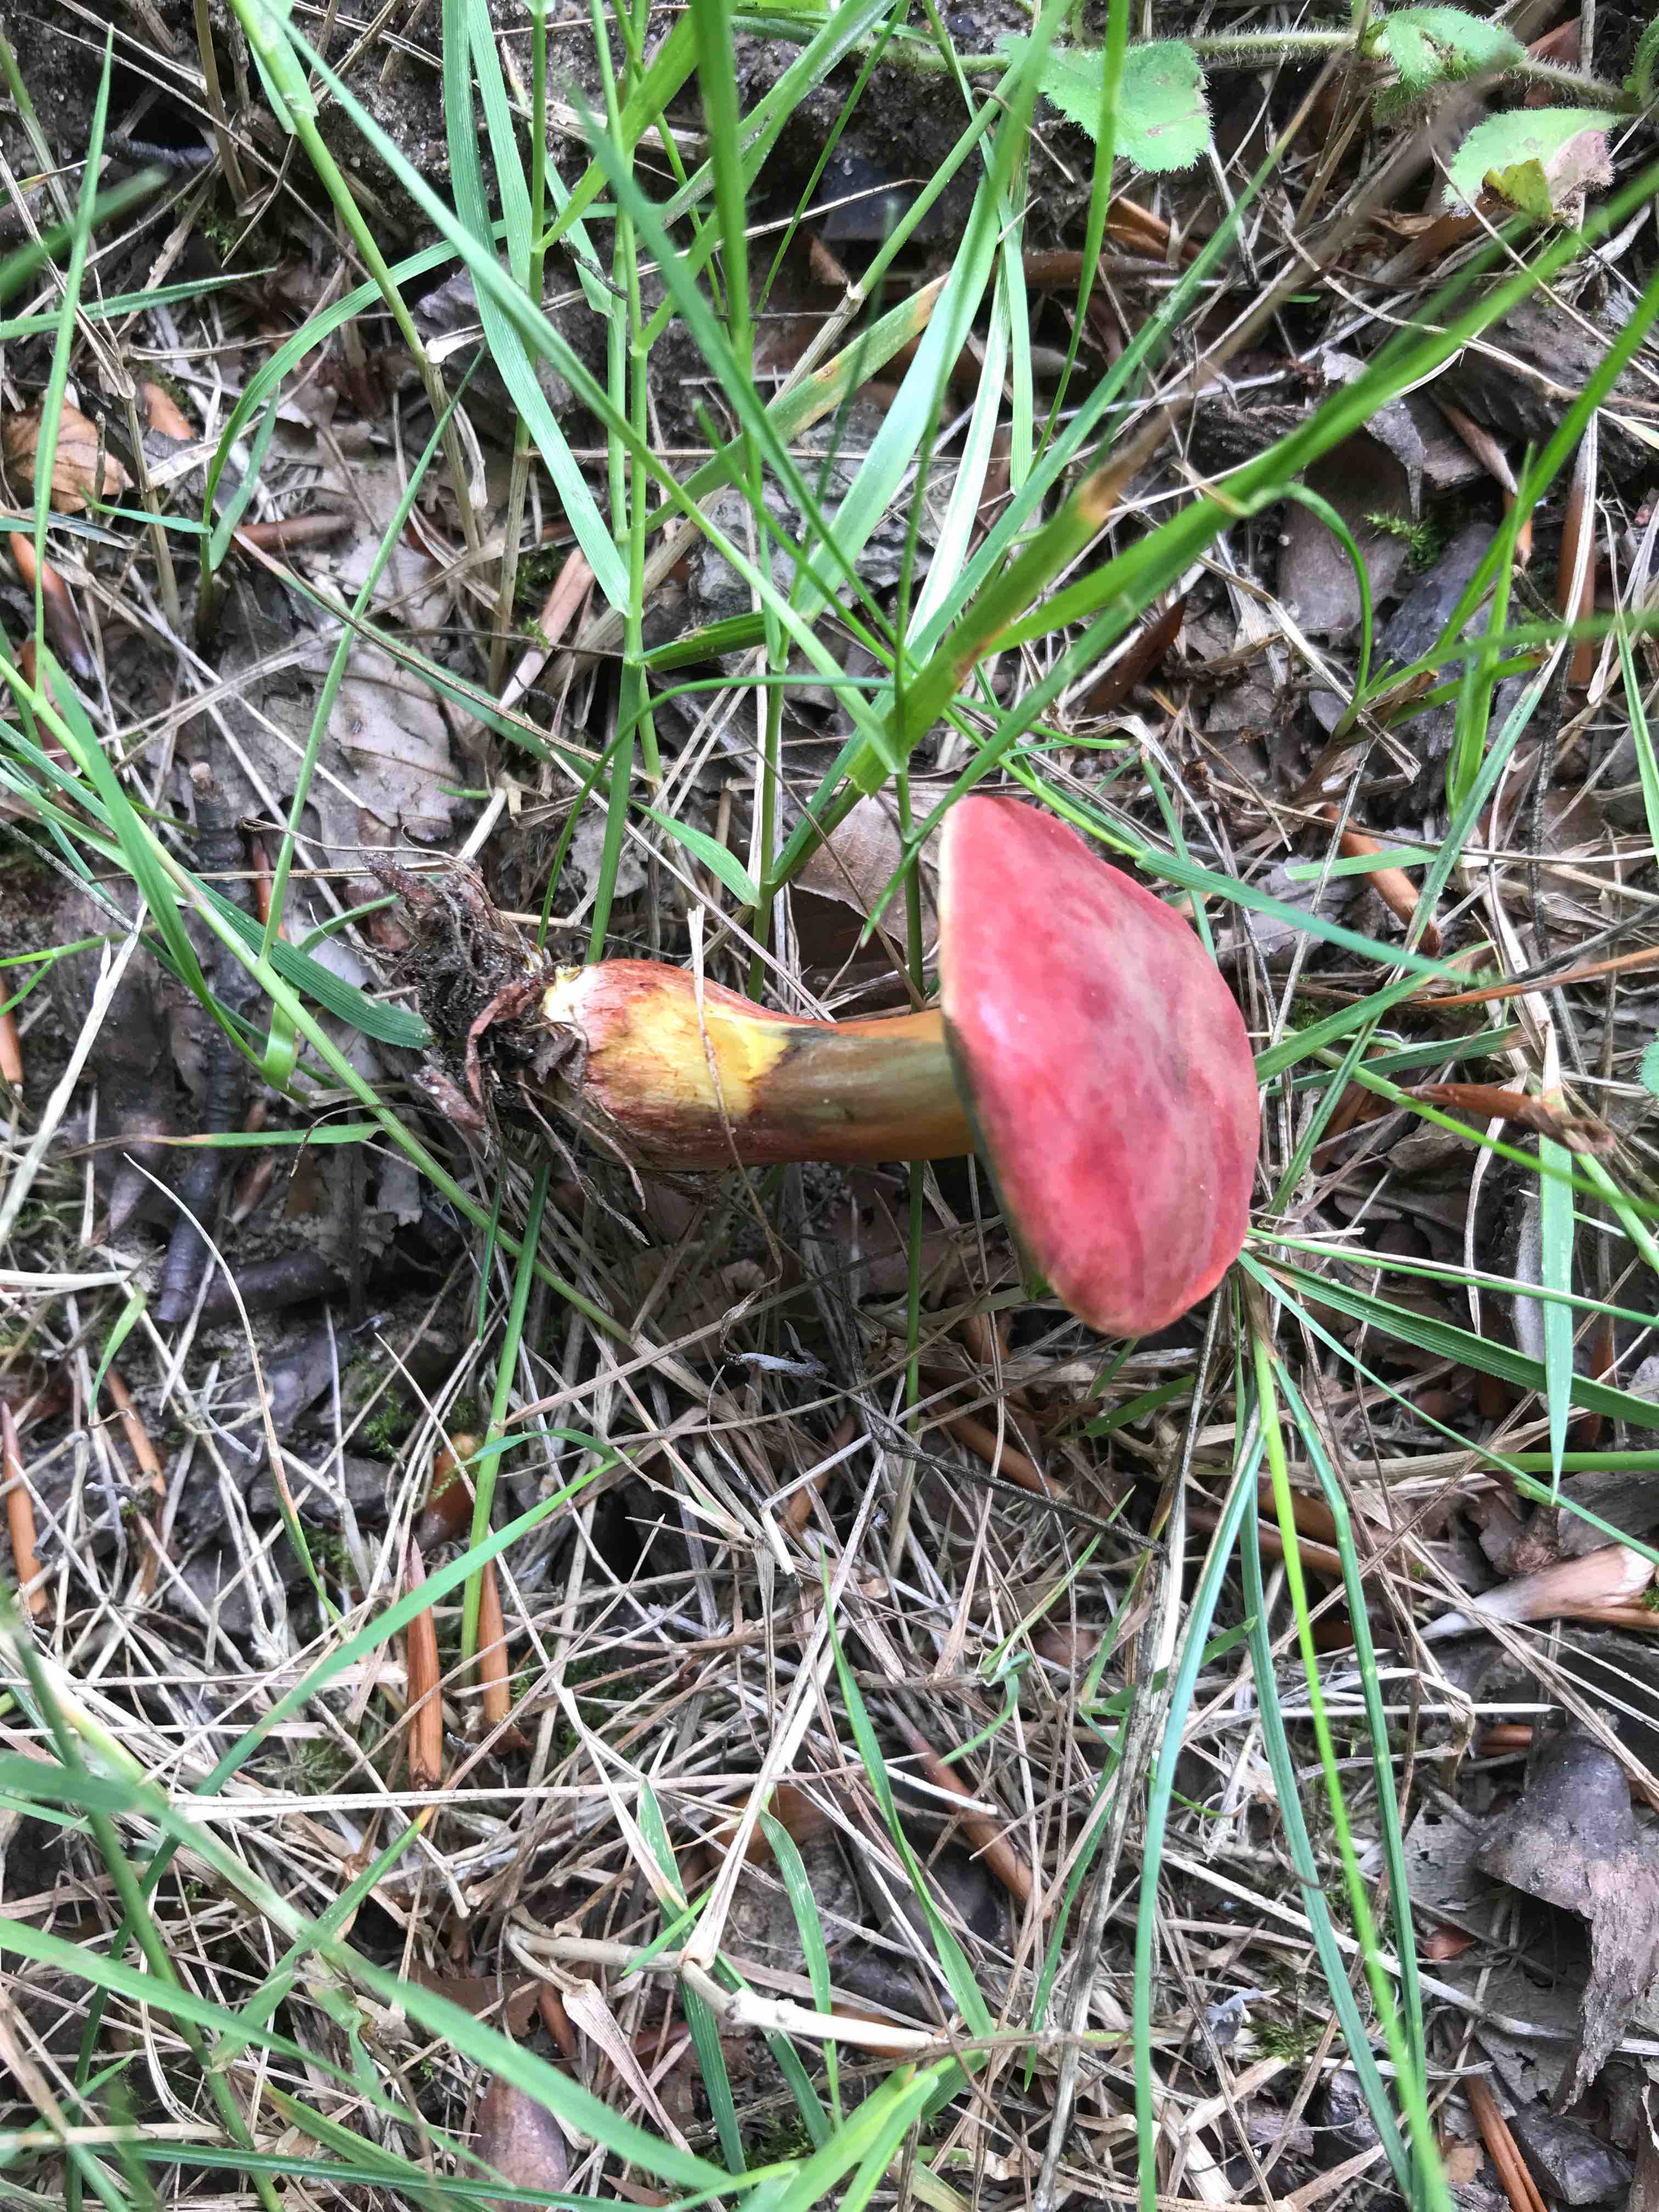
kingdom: Fungi
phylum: Basidiomycota
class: Agaricomycetes
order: Boletales
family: Boletaceae
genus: Hortiboletus
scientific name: Hortiboletus rubellus
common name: blodrød rørhat
